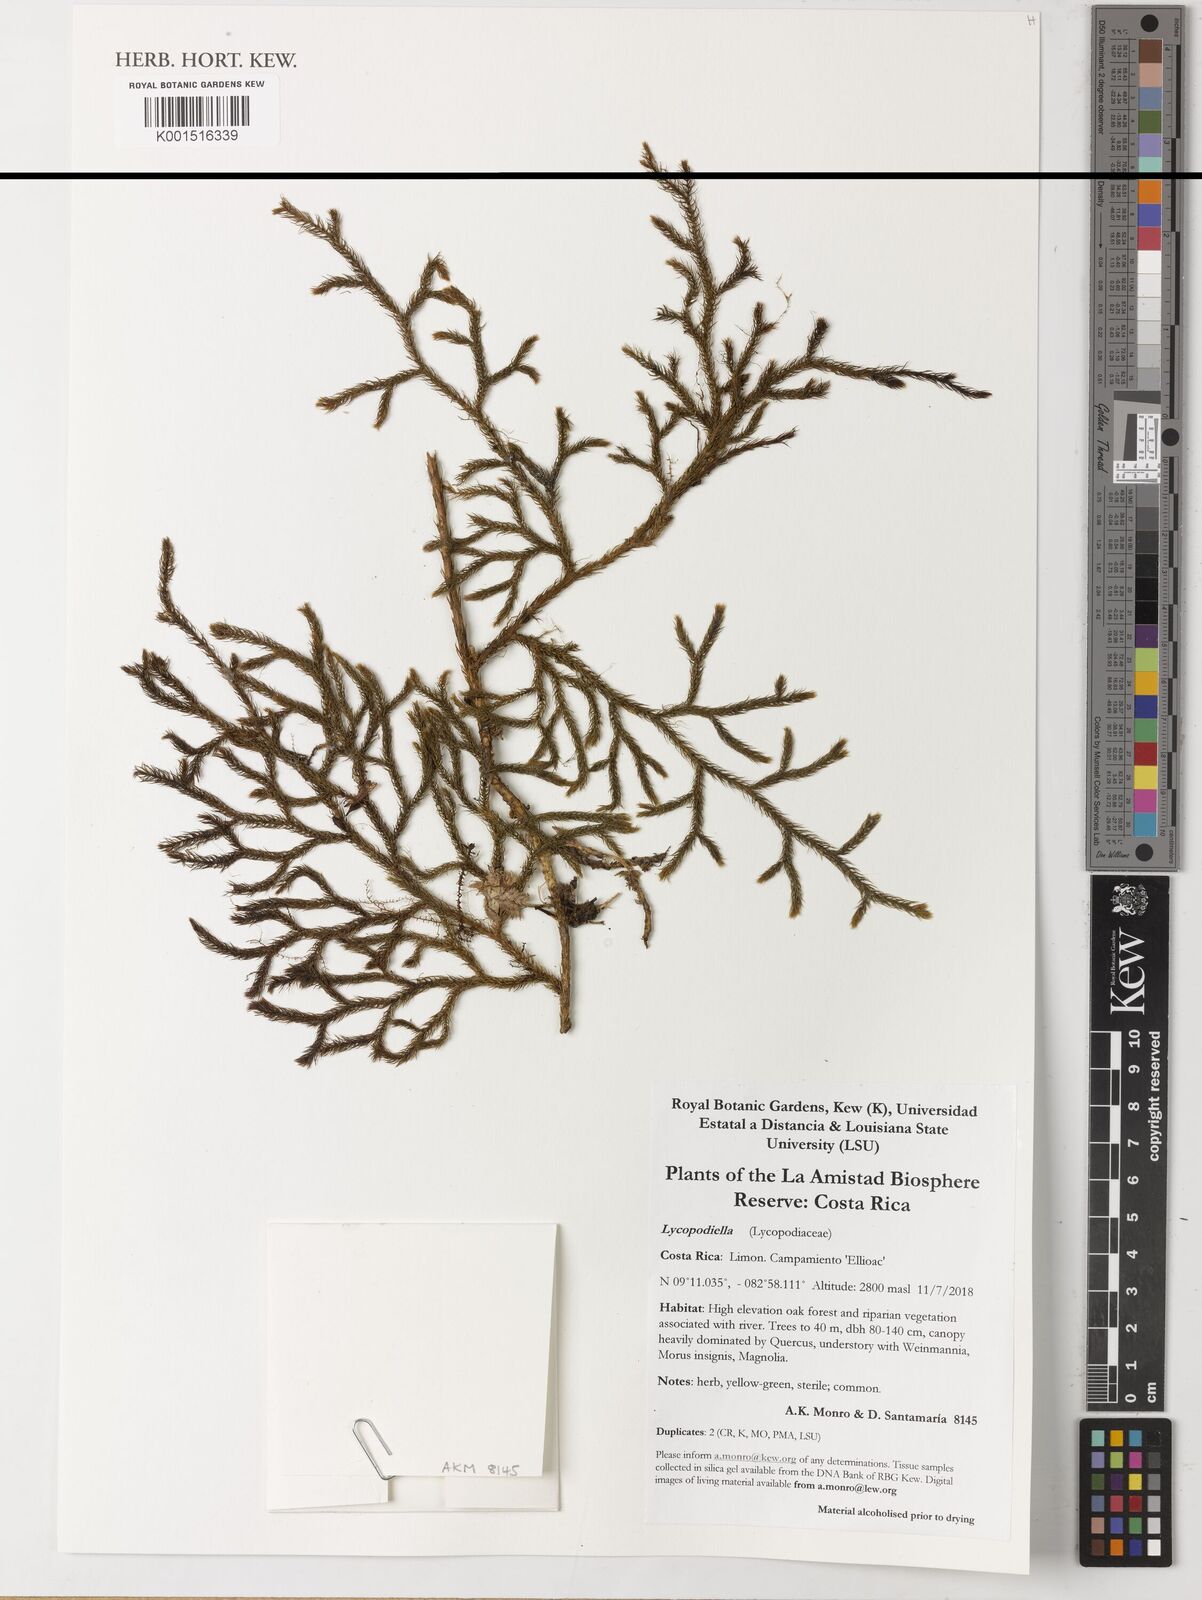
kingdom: Plantae
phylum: Tracheophyta
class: Lycopodiopsida
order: Lycopodiales
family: Lycopodiaceae
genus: Lycopodiella
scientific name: Lycopodiella
